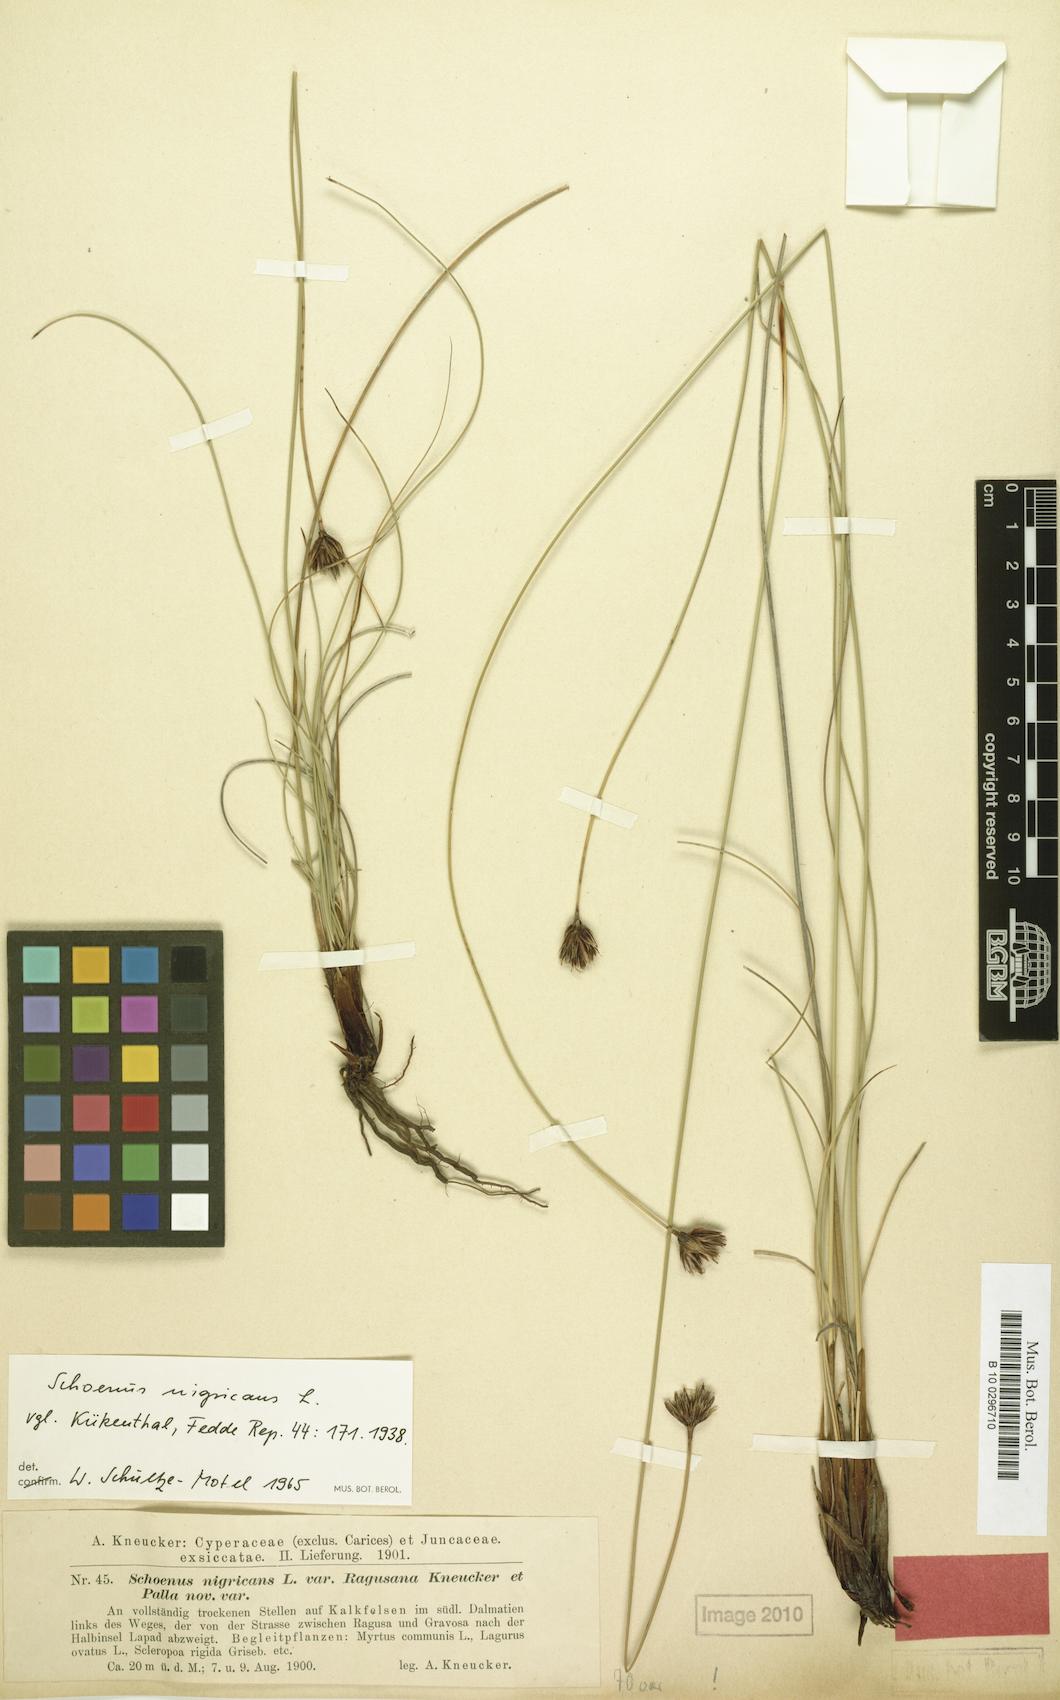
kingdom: Plantae
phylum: Tracheophyta
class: Liliopsida
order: Poales
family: Cyperaceae
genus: Schoenus
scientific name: Schoenus nigricans
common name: Black bog-rush
